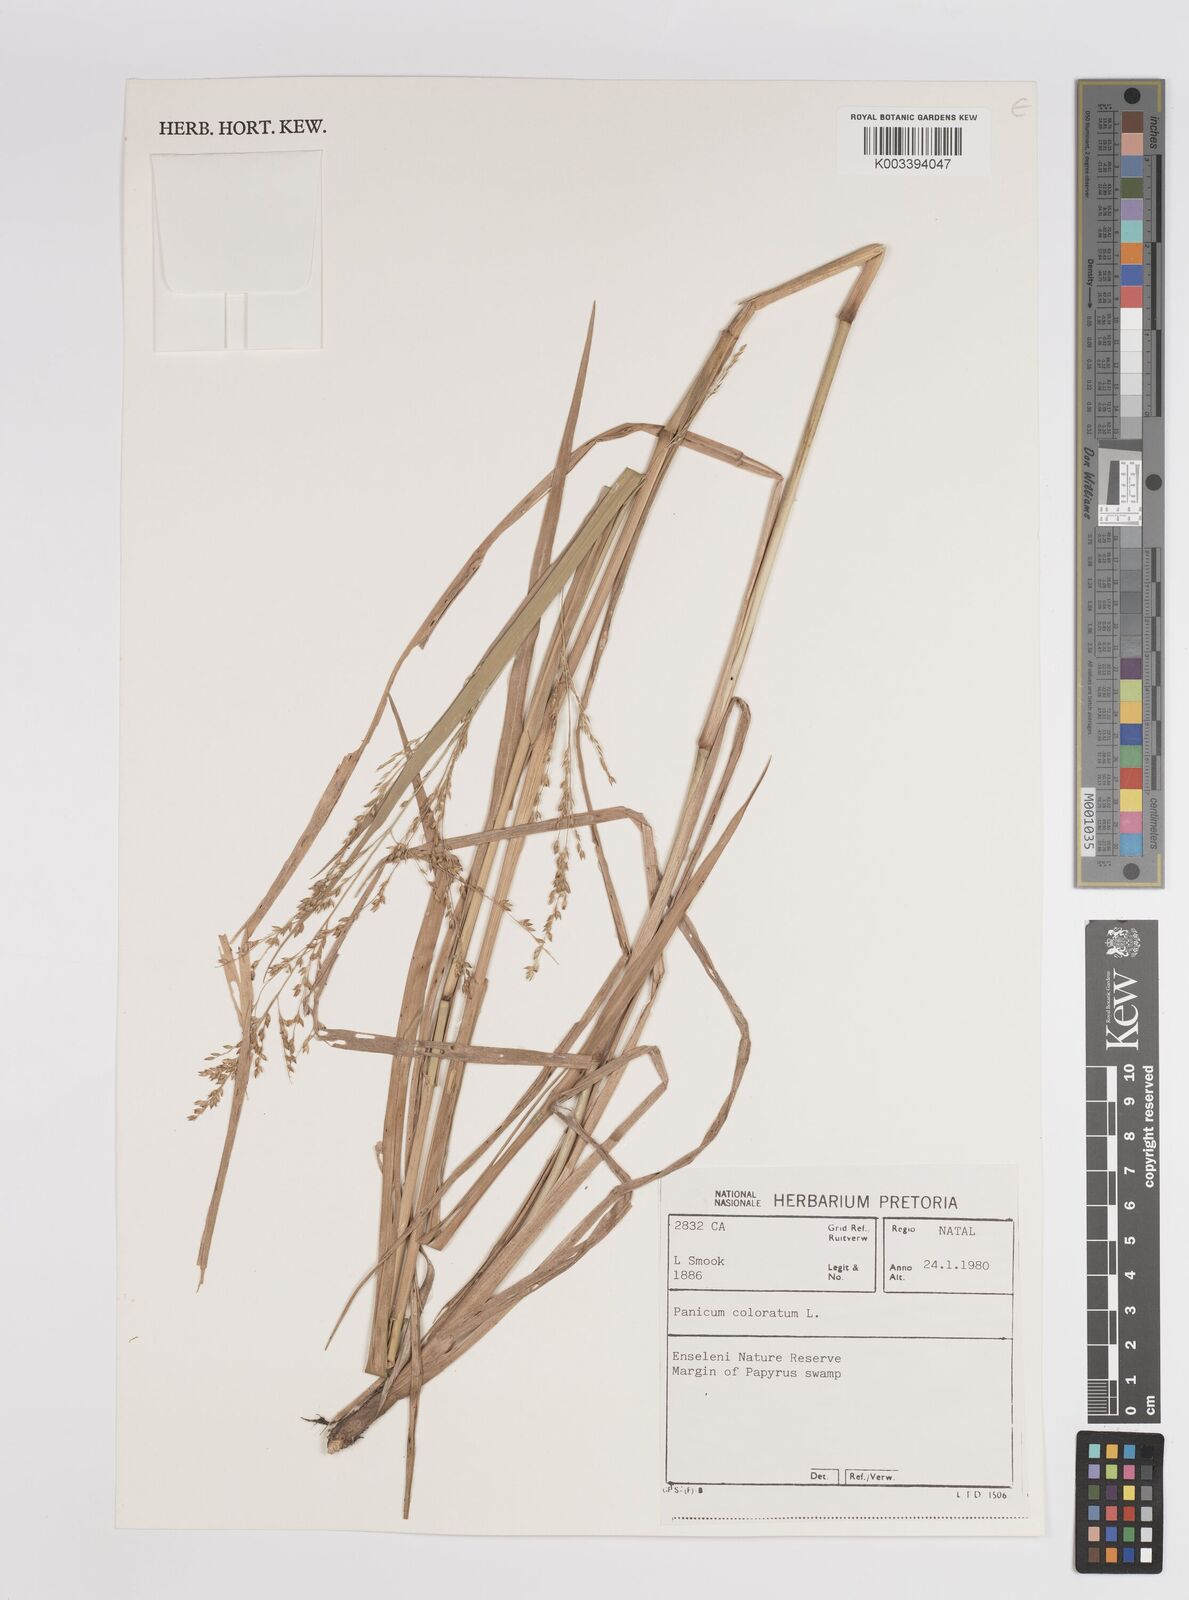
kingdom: Plantae
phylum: Tracheophyta
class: Liliopsida
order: Poales
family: Poaceae
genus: Panicum
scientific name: Panicum coloratum
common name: Kleingrass
